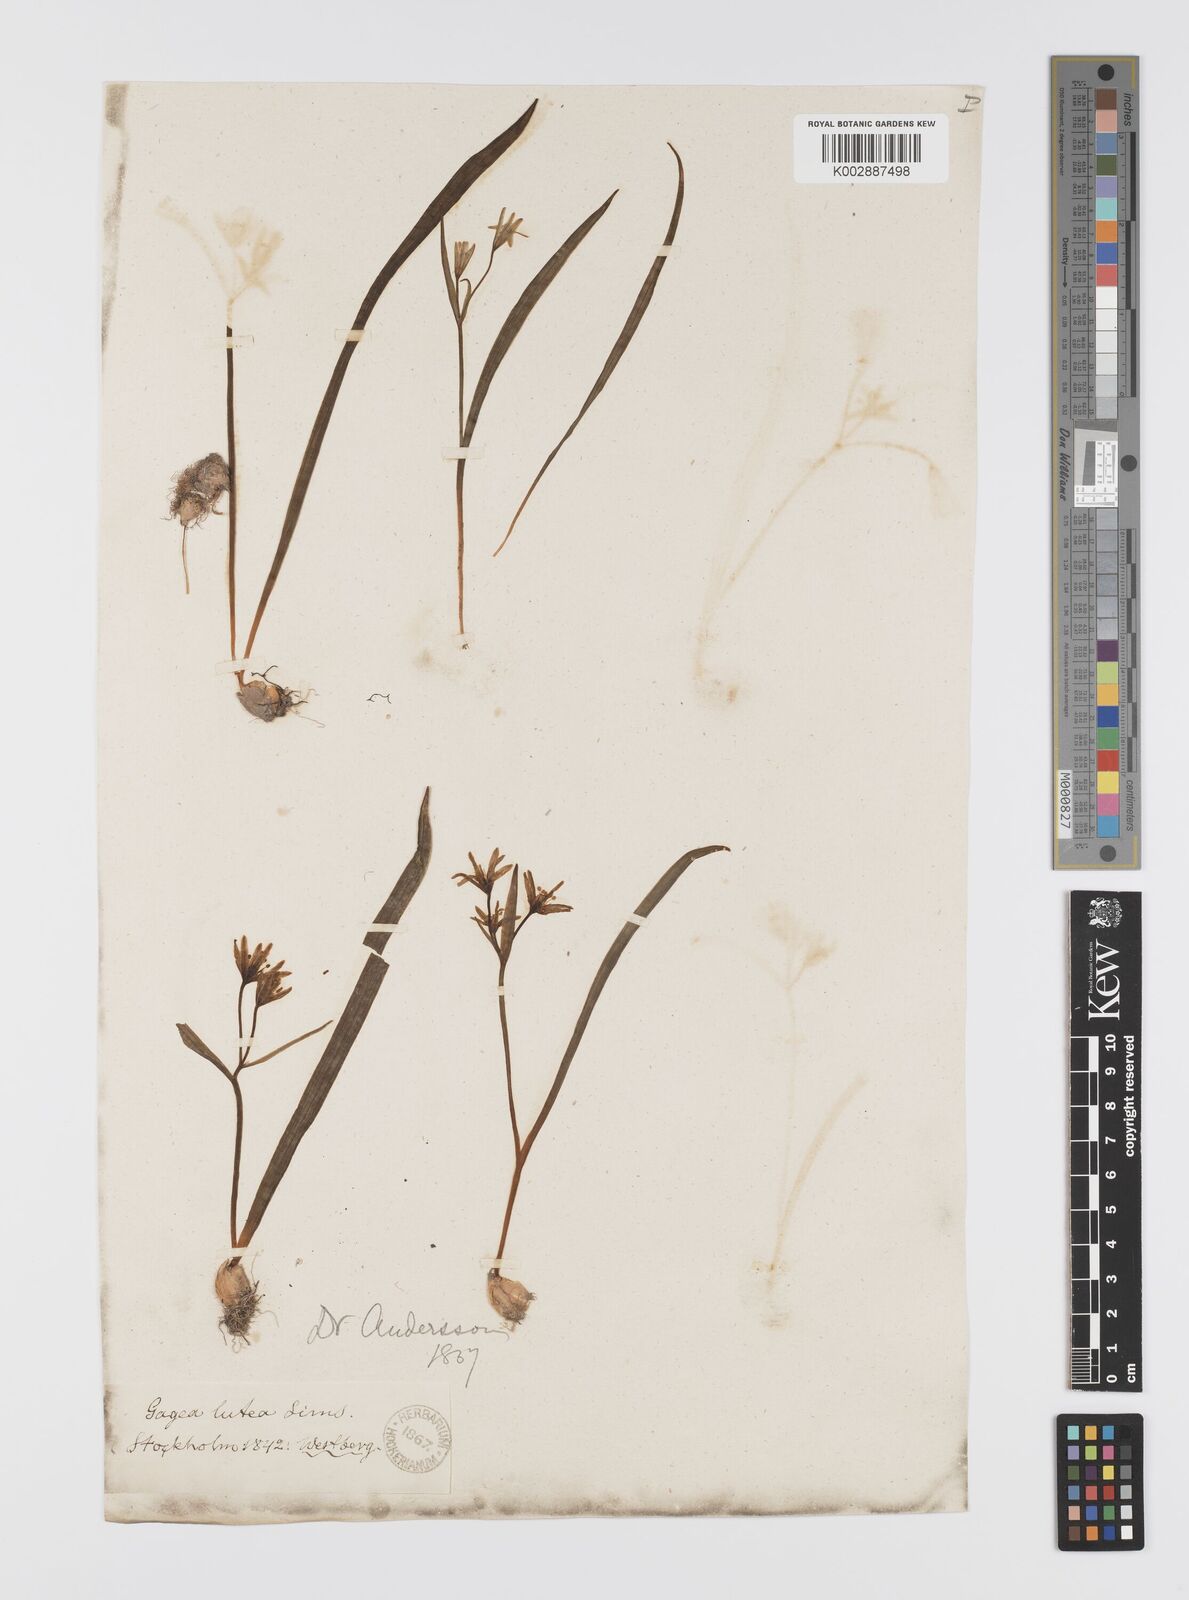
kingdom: Plantae
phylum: Tracheophyta
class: Liliopsida
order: Liliales
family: Liliaceae
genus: Gagea
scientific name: Gagea lutea
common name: Yellow star-of-bethlehem
